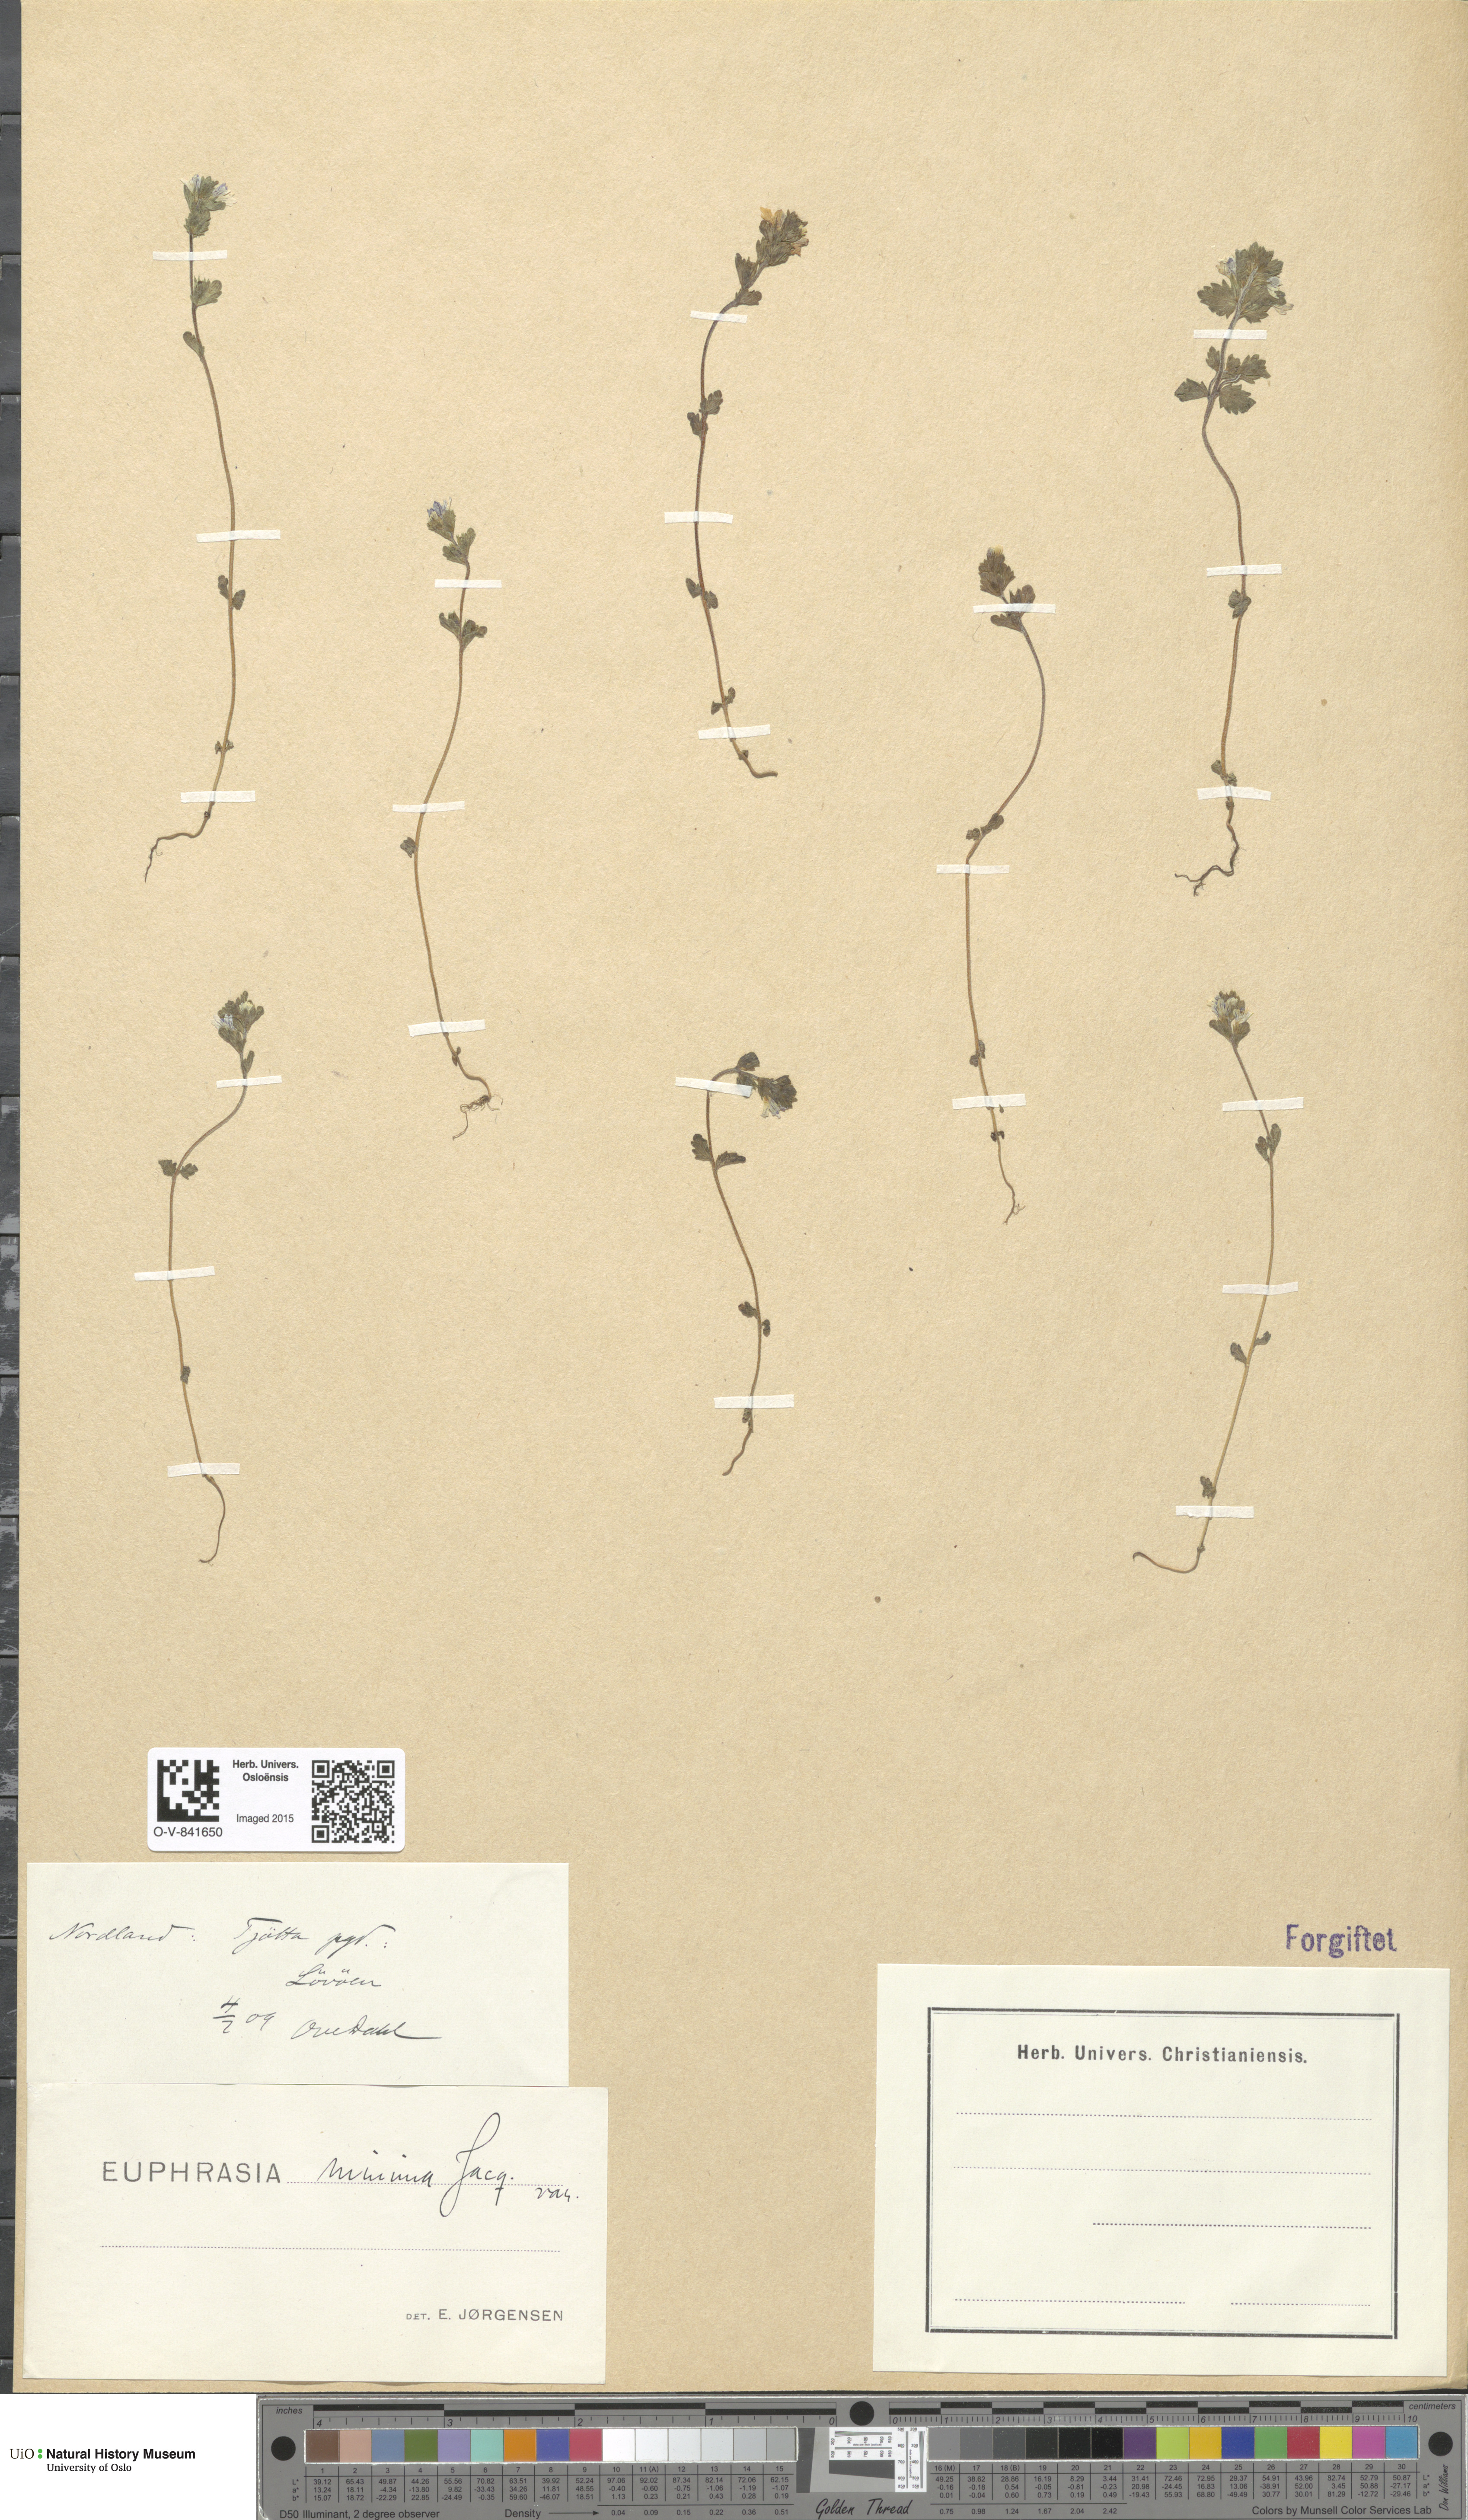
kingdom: Plantae
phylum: Tracheophyta
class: Magnoliopsida
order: Lamiales
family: Orobanchaceae
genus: Euphrasia
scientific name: Euphrasia wettsteinii
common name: Wettstein's eyebright
